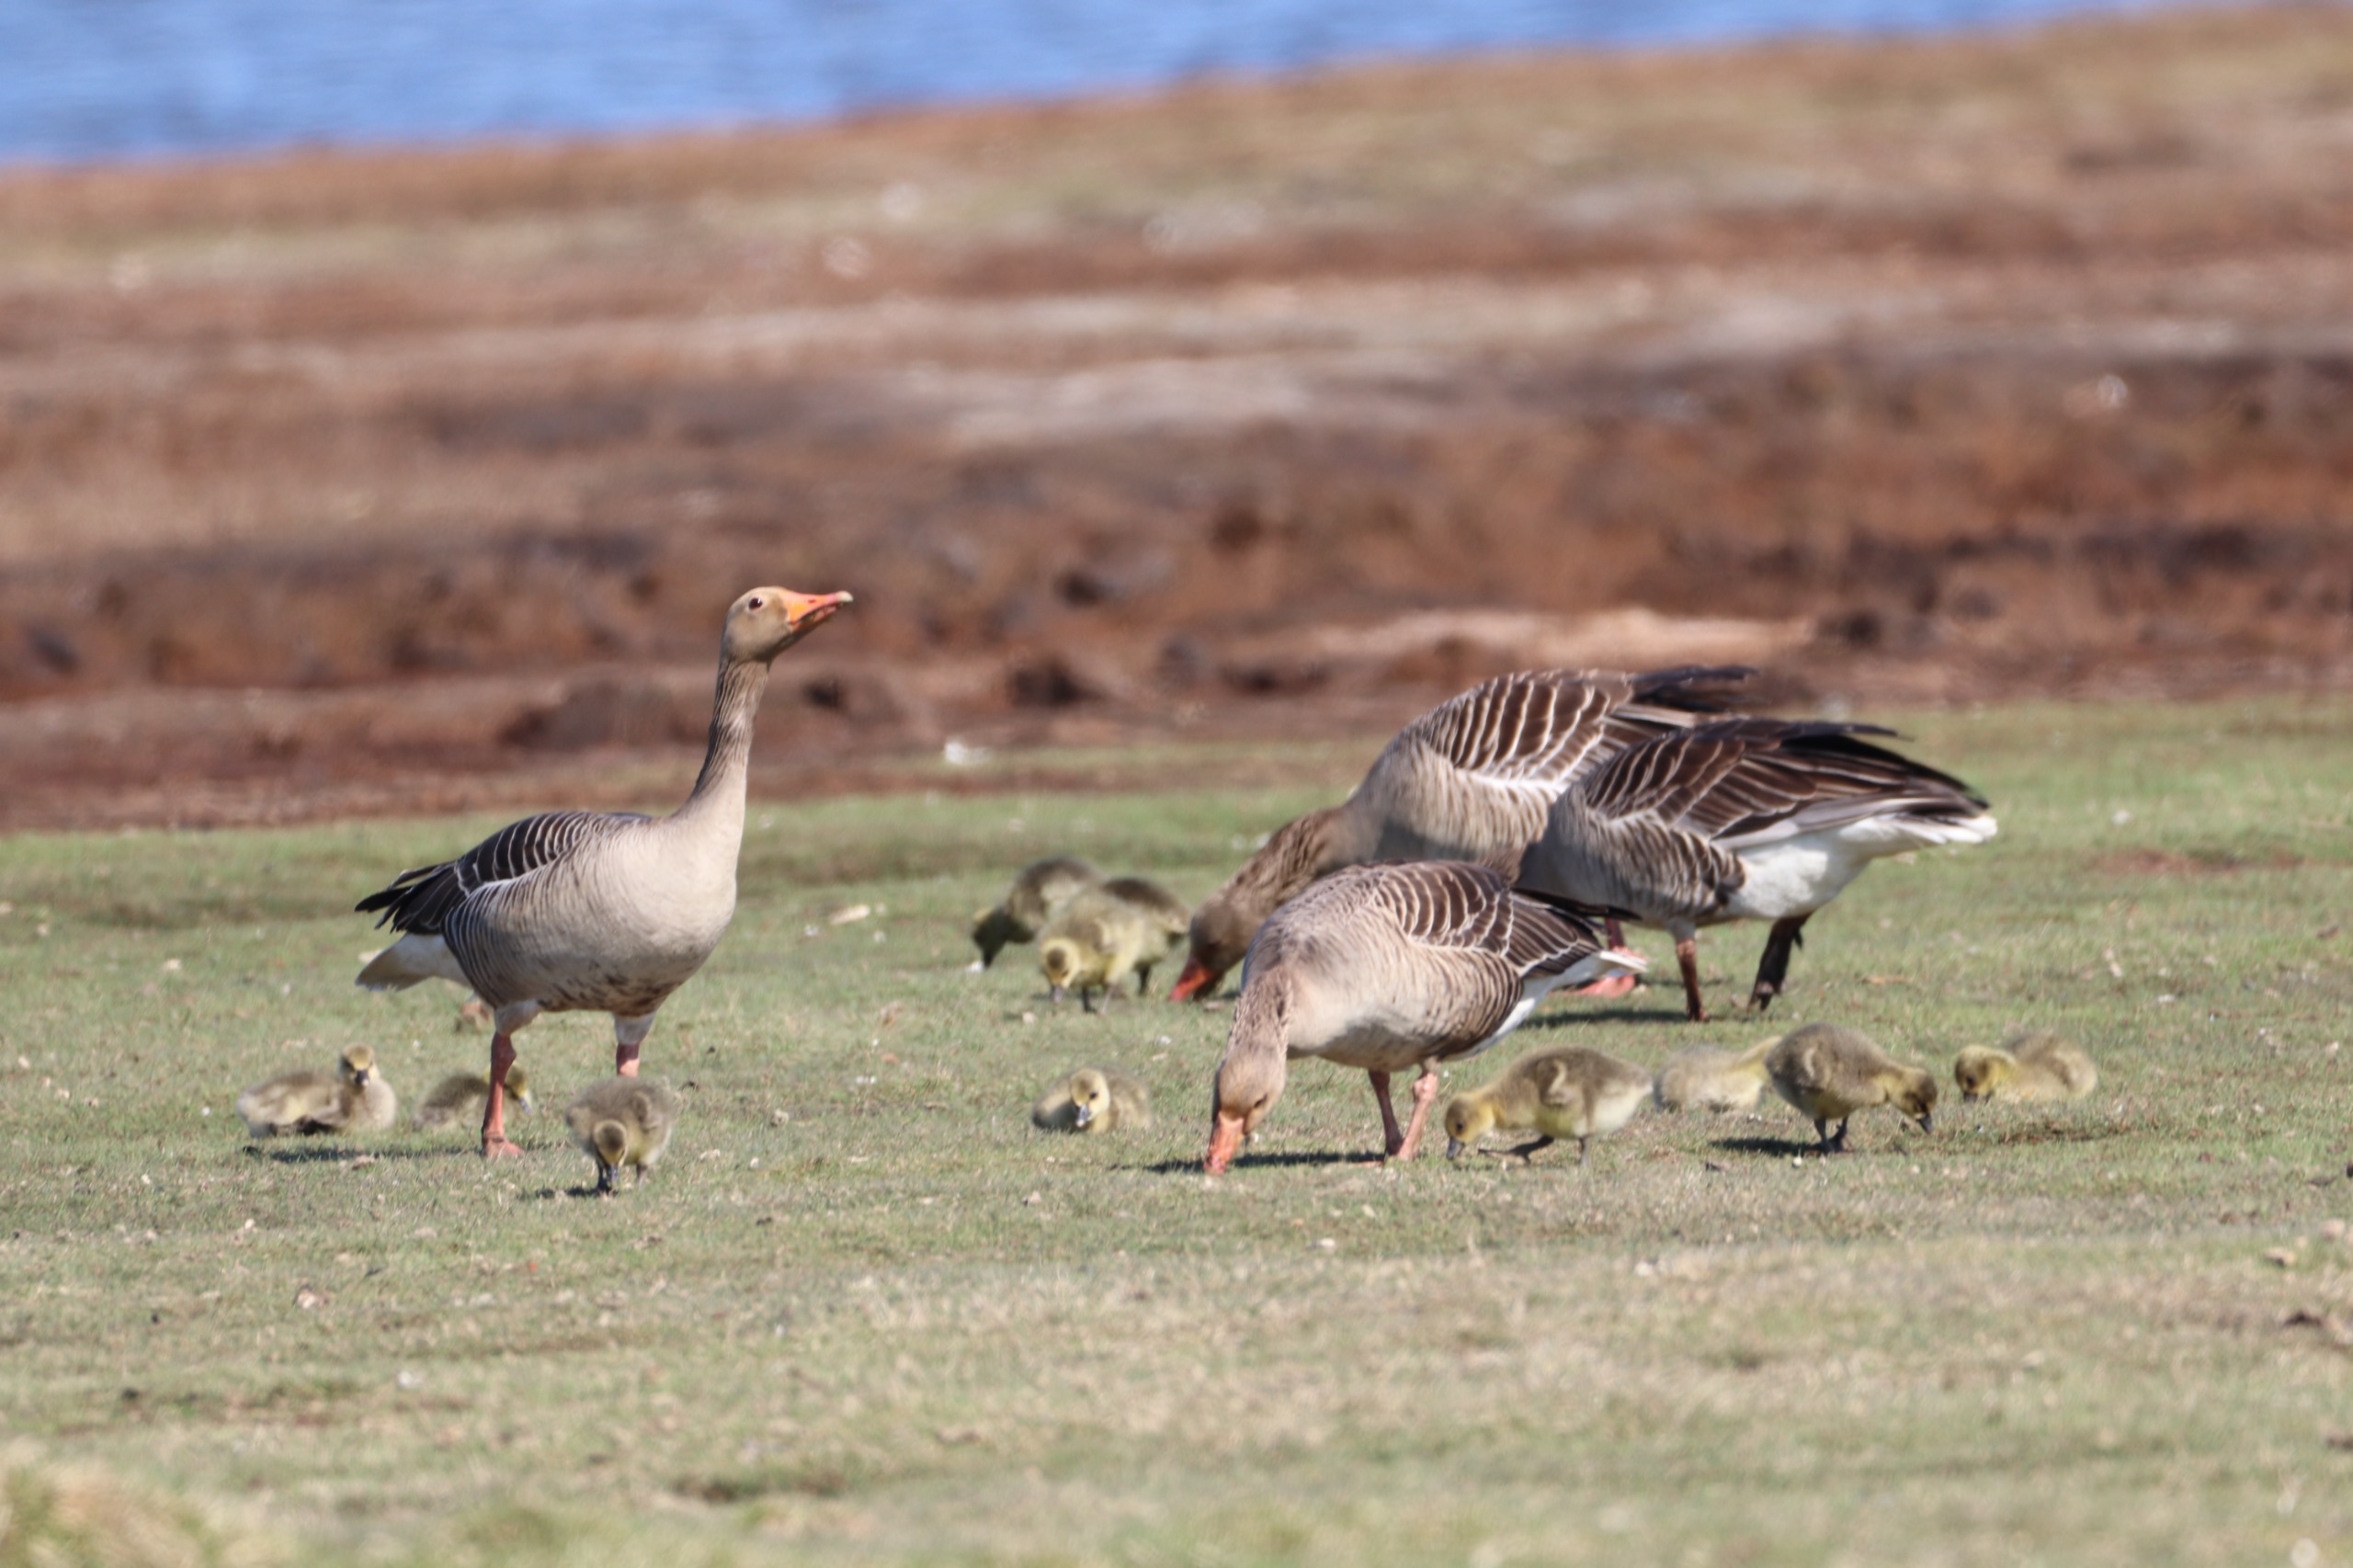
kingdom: Animalia
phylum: Chordata
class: Aves
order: Anseriformes
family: Anatidae
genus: Anser
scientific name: Anser anser
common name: Grågås
